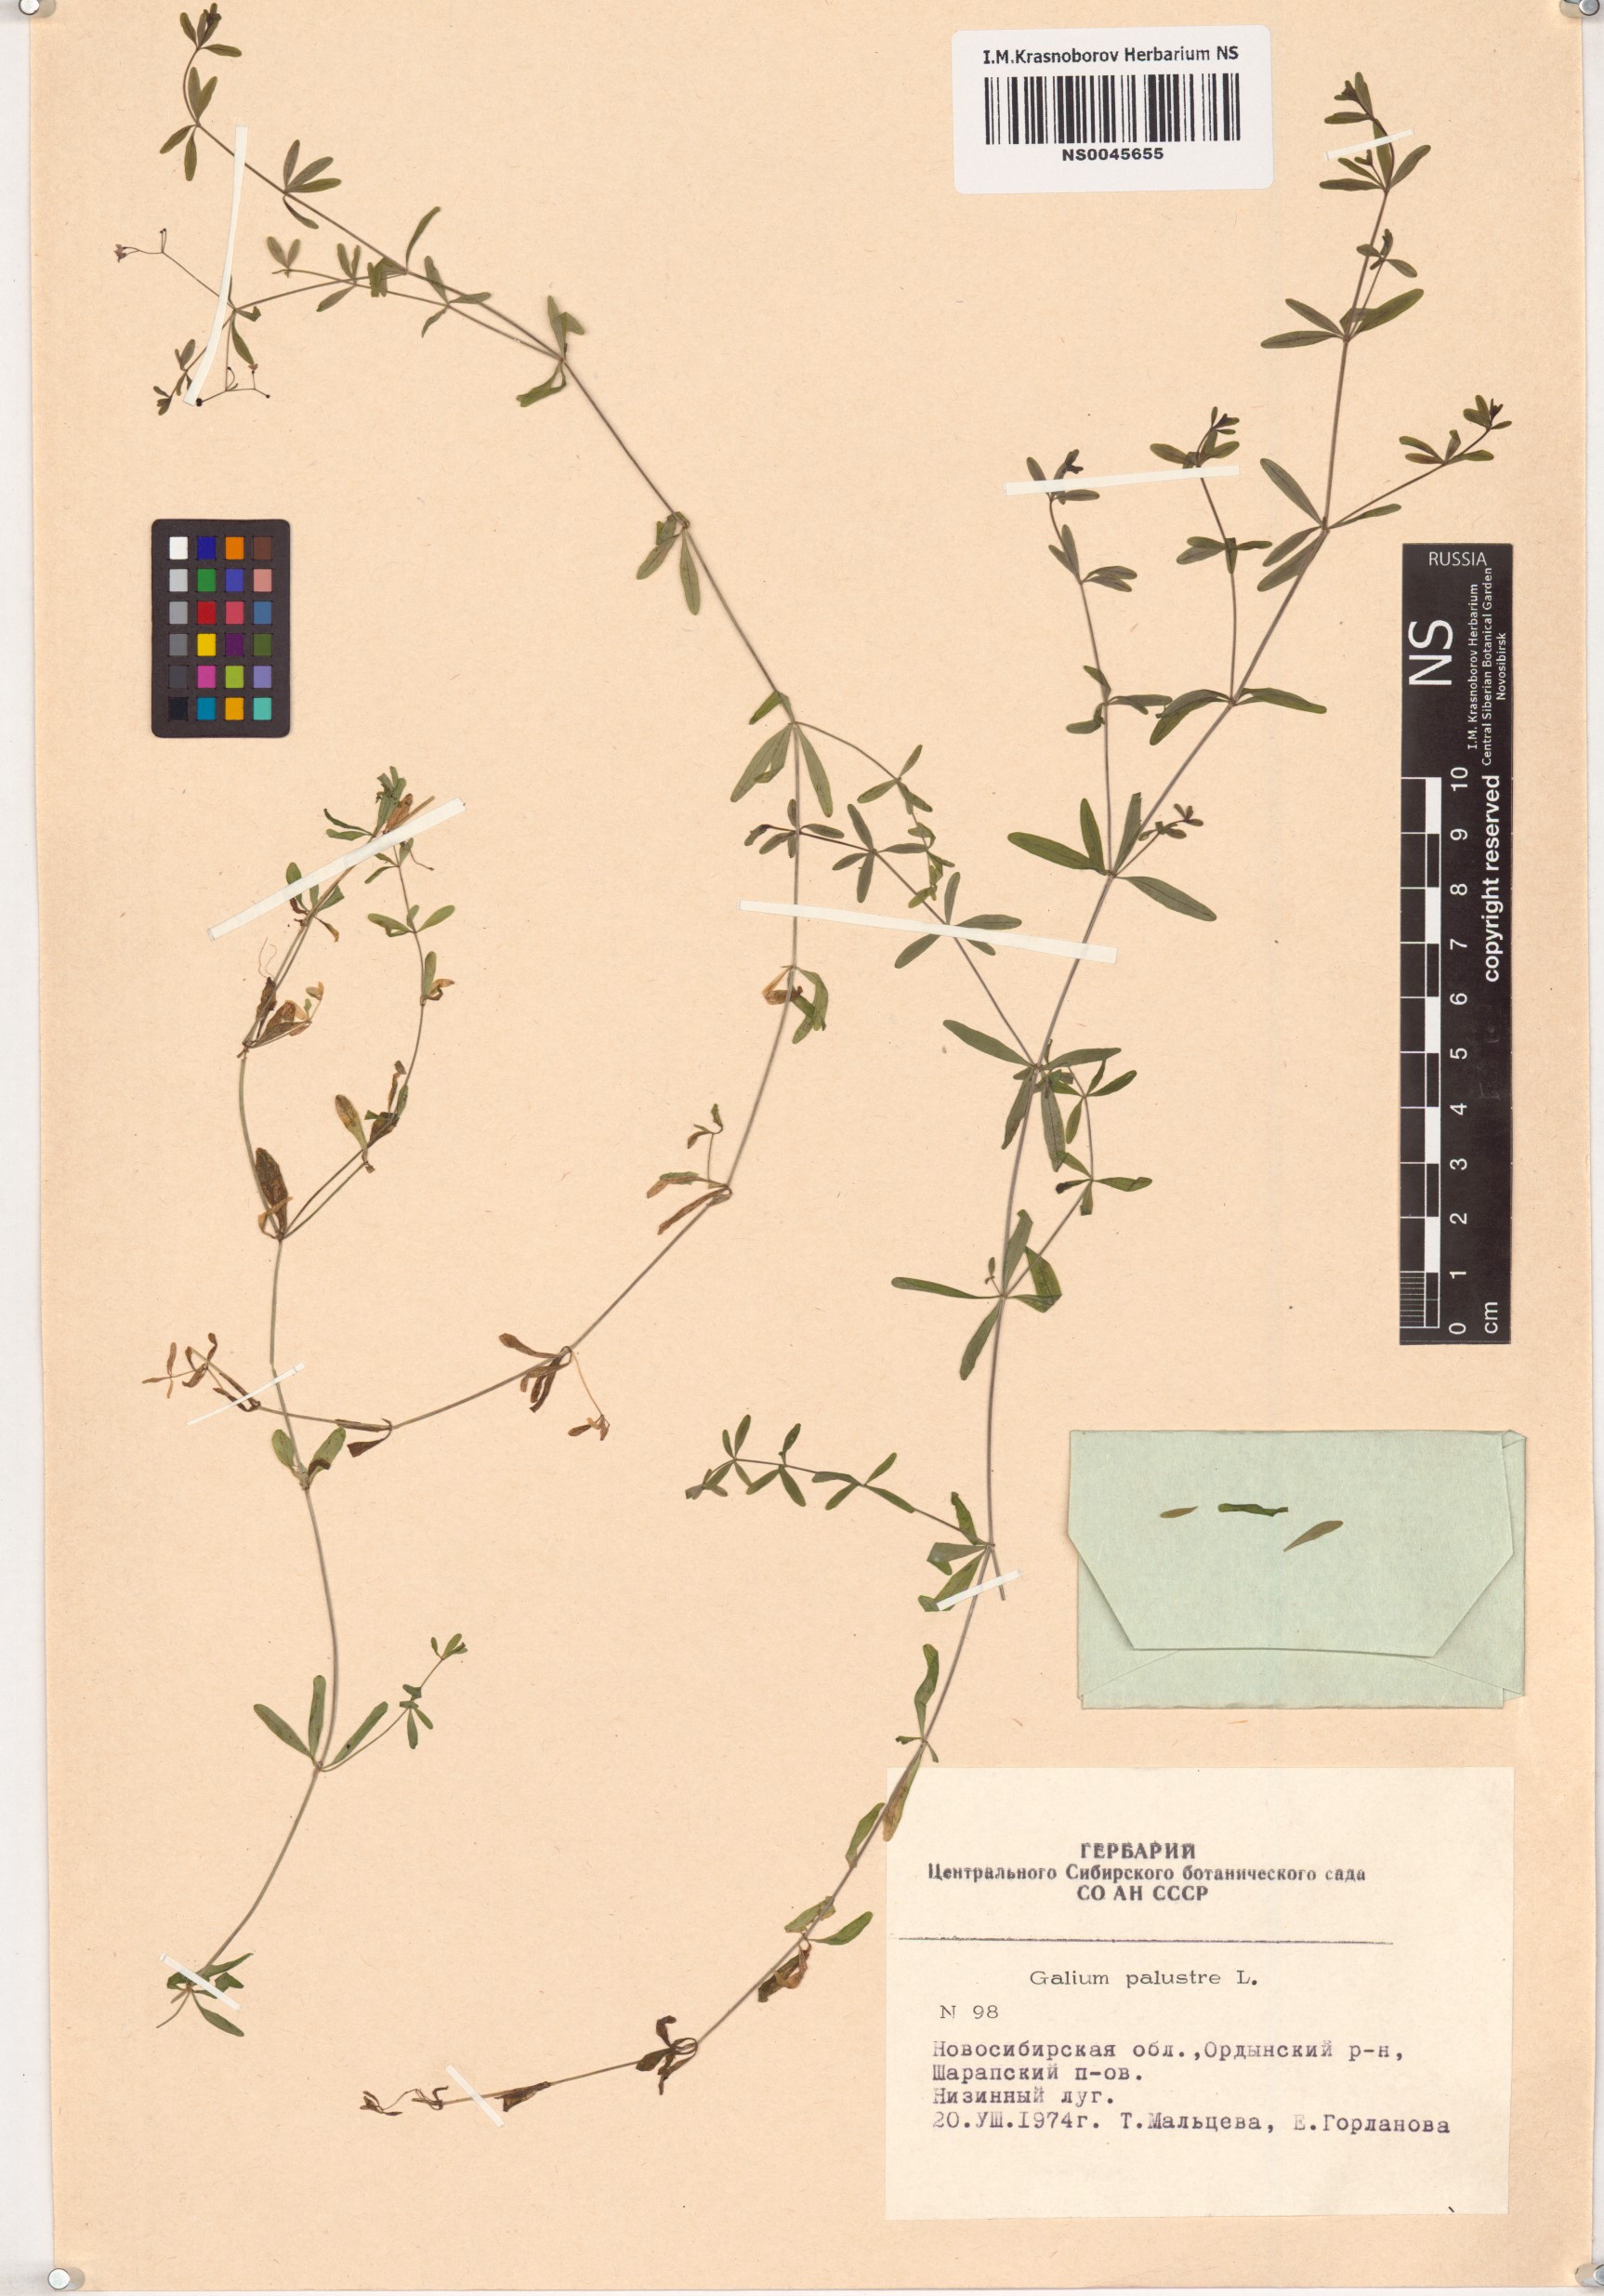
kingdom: Plantae
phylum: Tracheophyta
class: Magnoliopsida
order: Gentianales
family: Rubiaceae
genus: Galium
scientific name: Galium palustre
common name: Common marsh-bedstraw
